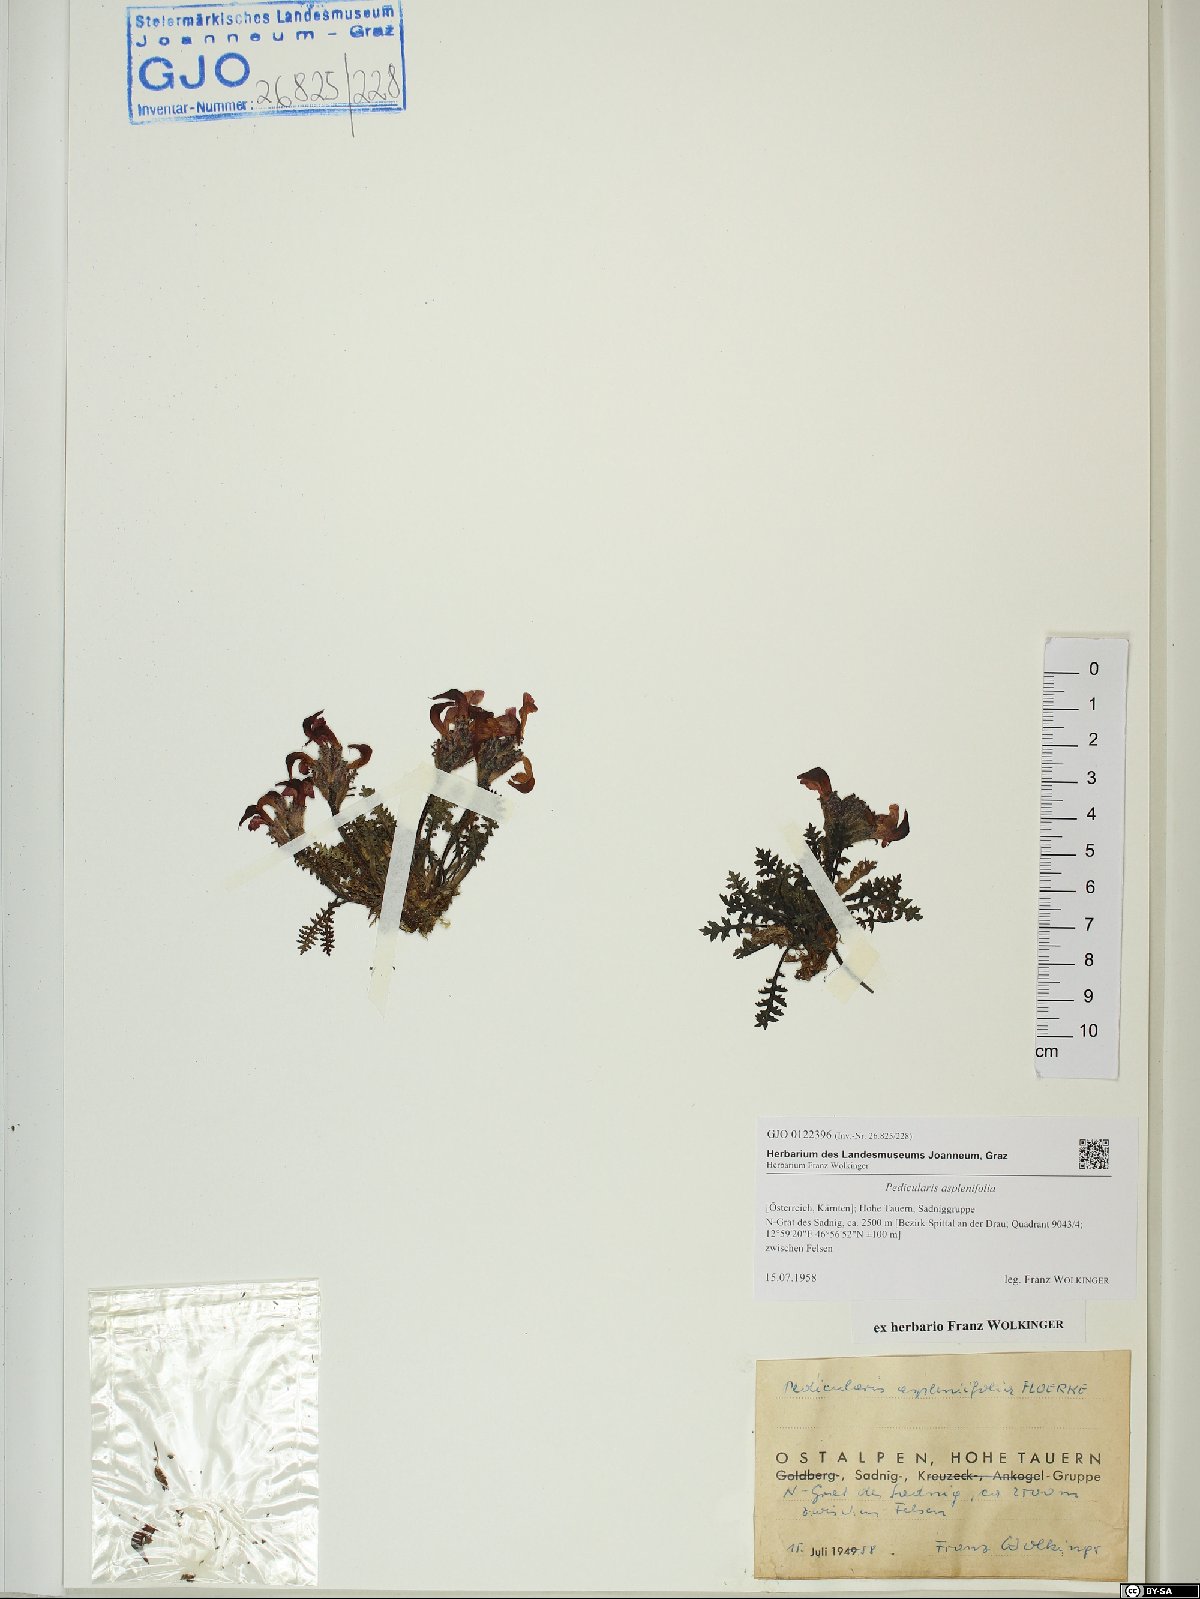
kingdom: Plantae
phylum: Tracheophyta
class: Magnoliopsida
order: Lamiales
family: Orobanchaceae
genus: Pedicularis
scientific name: Pedicularis asplenifolia
